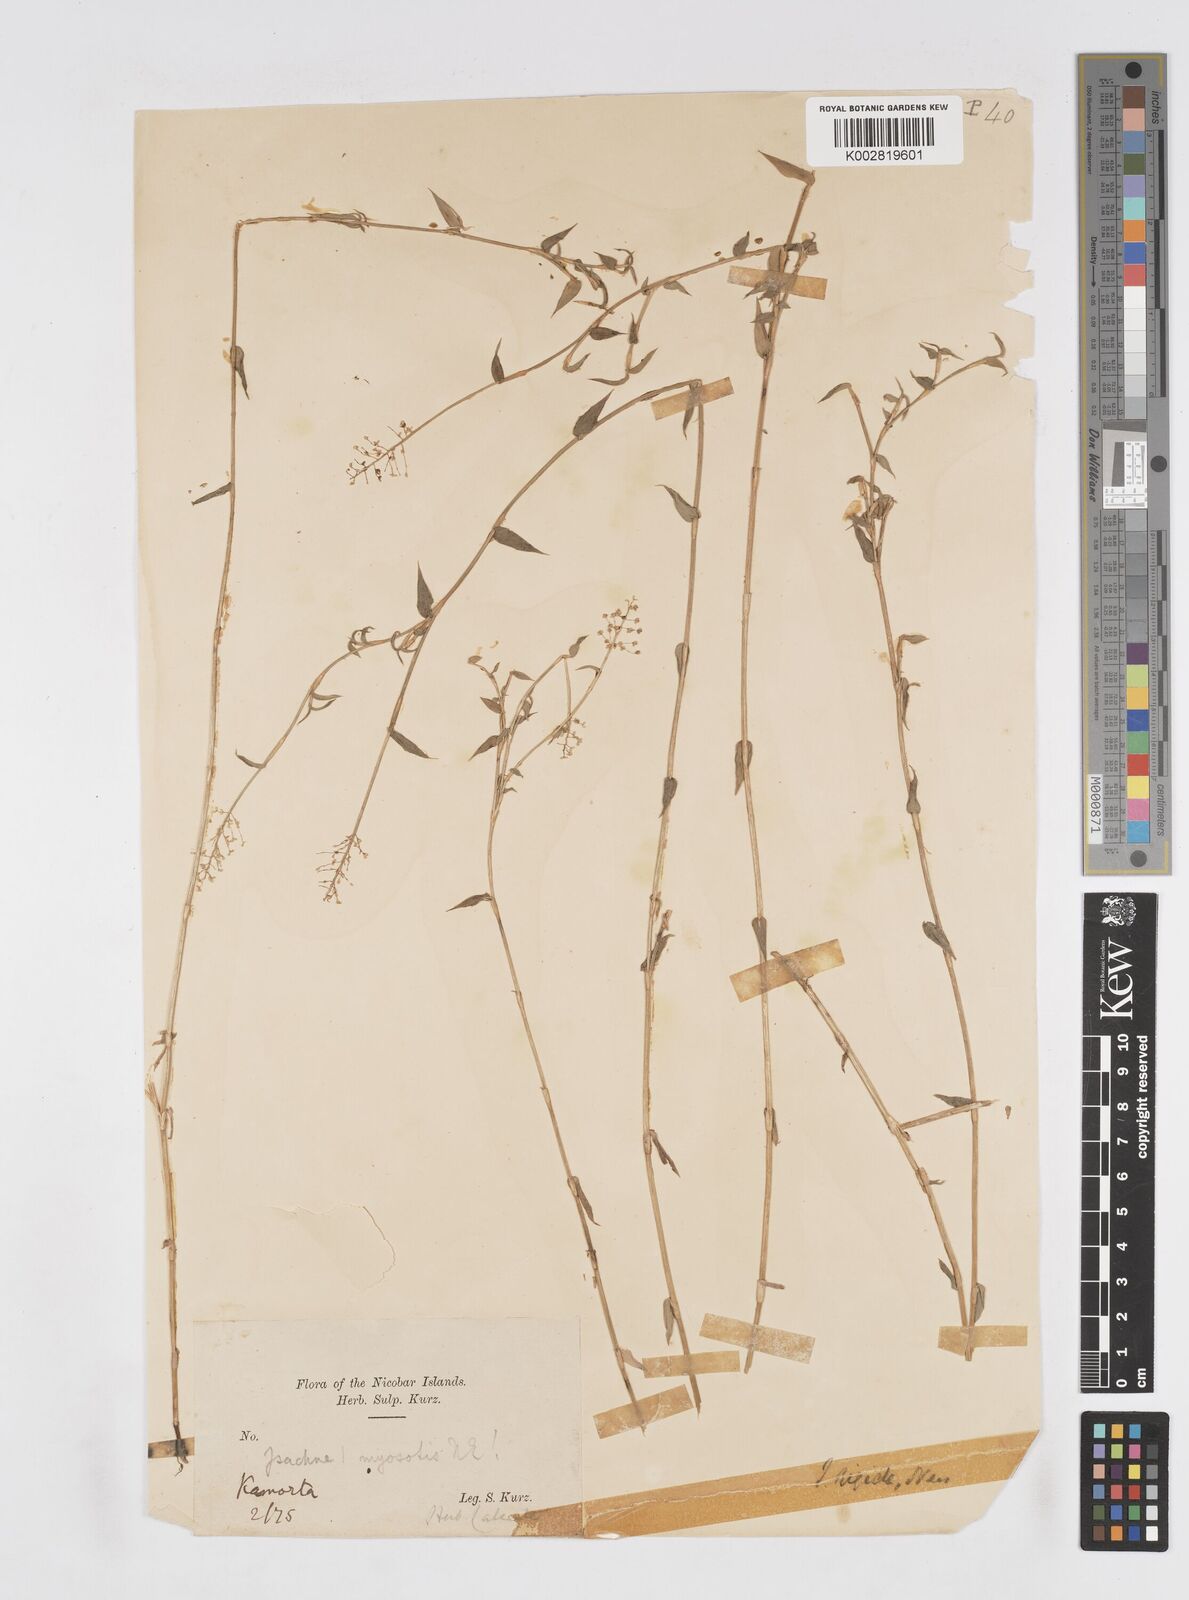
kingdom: Plantae
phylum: Tracheophyta
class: Liliopsida
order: Poales
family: Poaceae
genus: Isachne
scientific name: Isachne confusa
